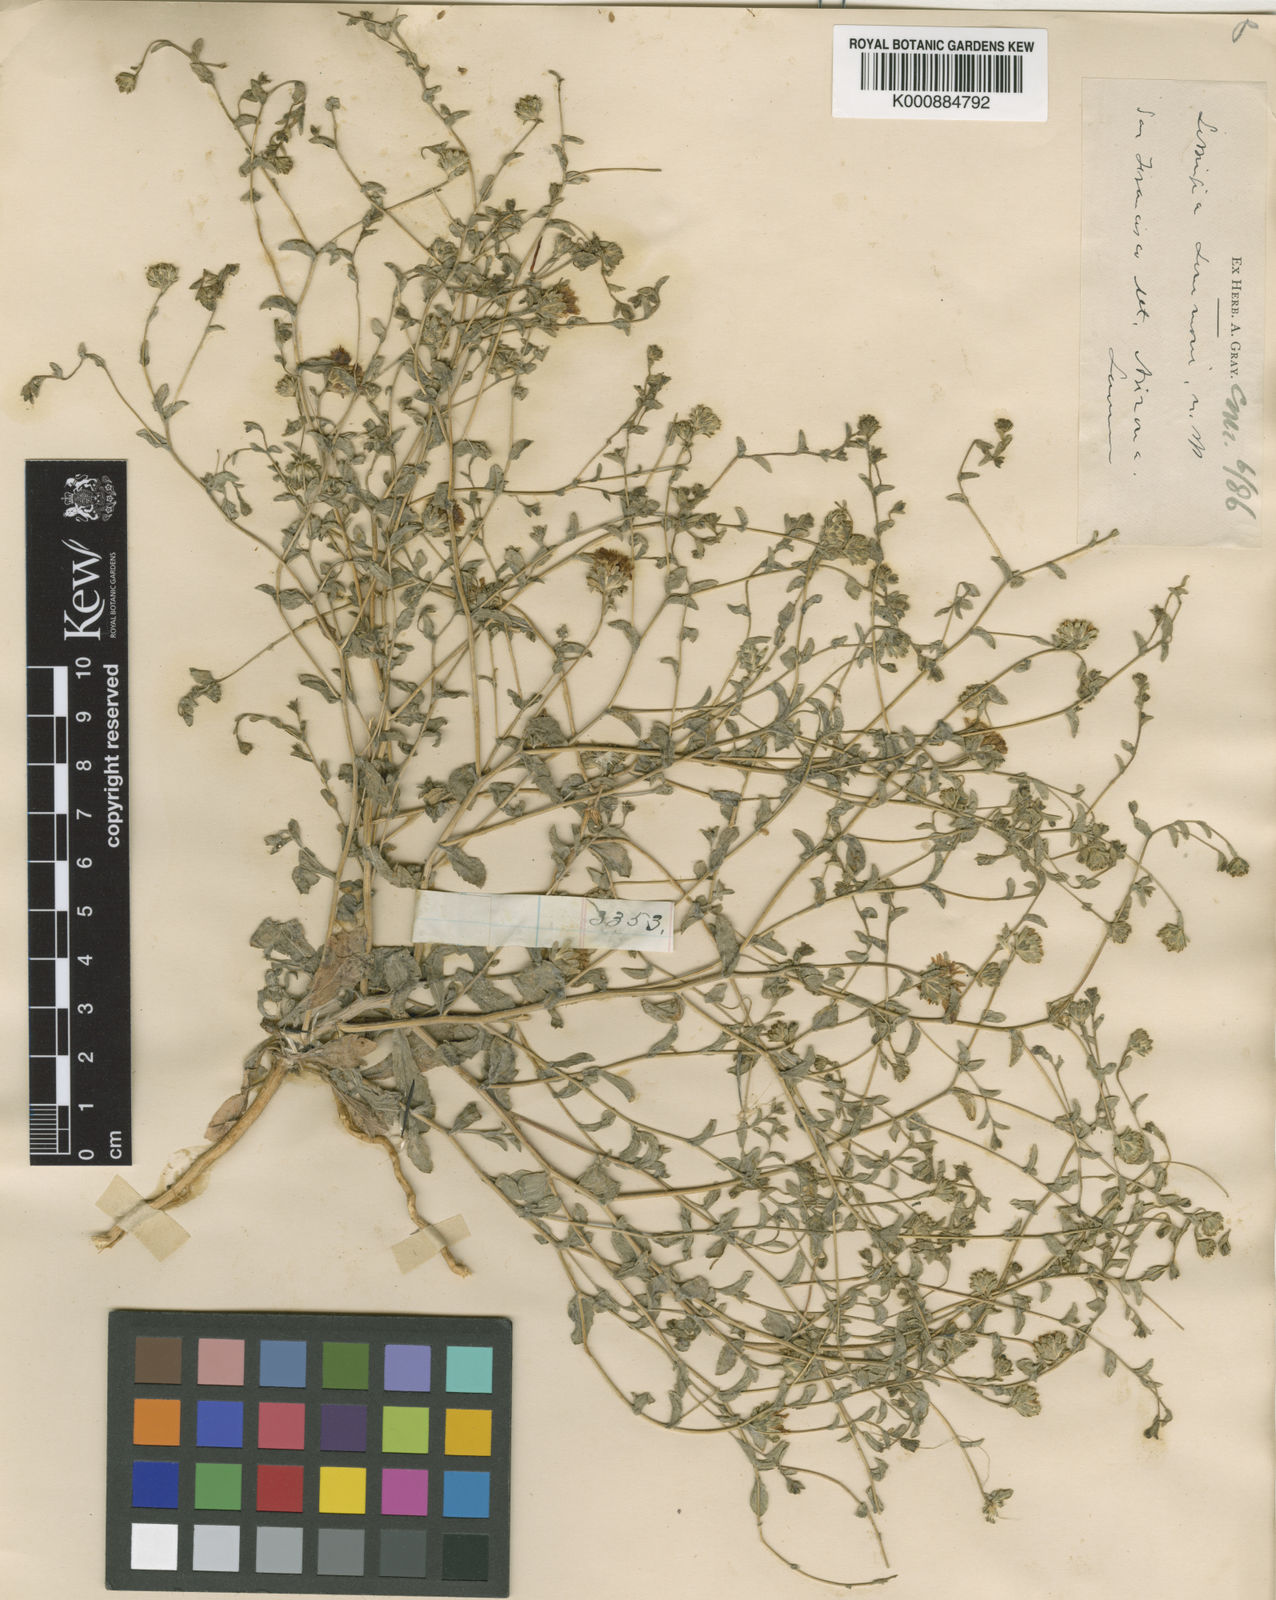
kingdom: Plantae
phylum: Tracheophyta
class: Magnoliopsida
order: Asterales
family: Asteraceae
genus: Lessingia
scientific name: Lessingia
